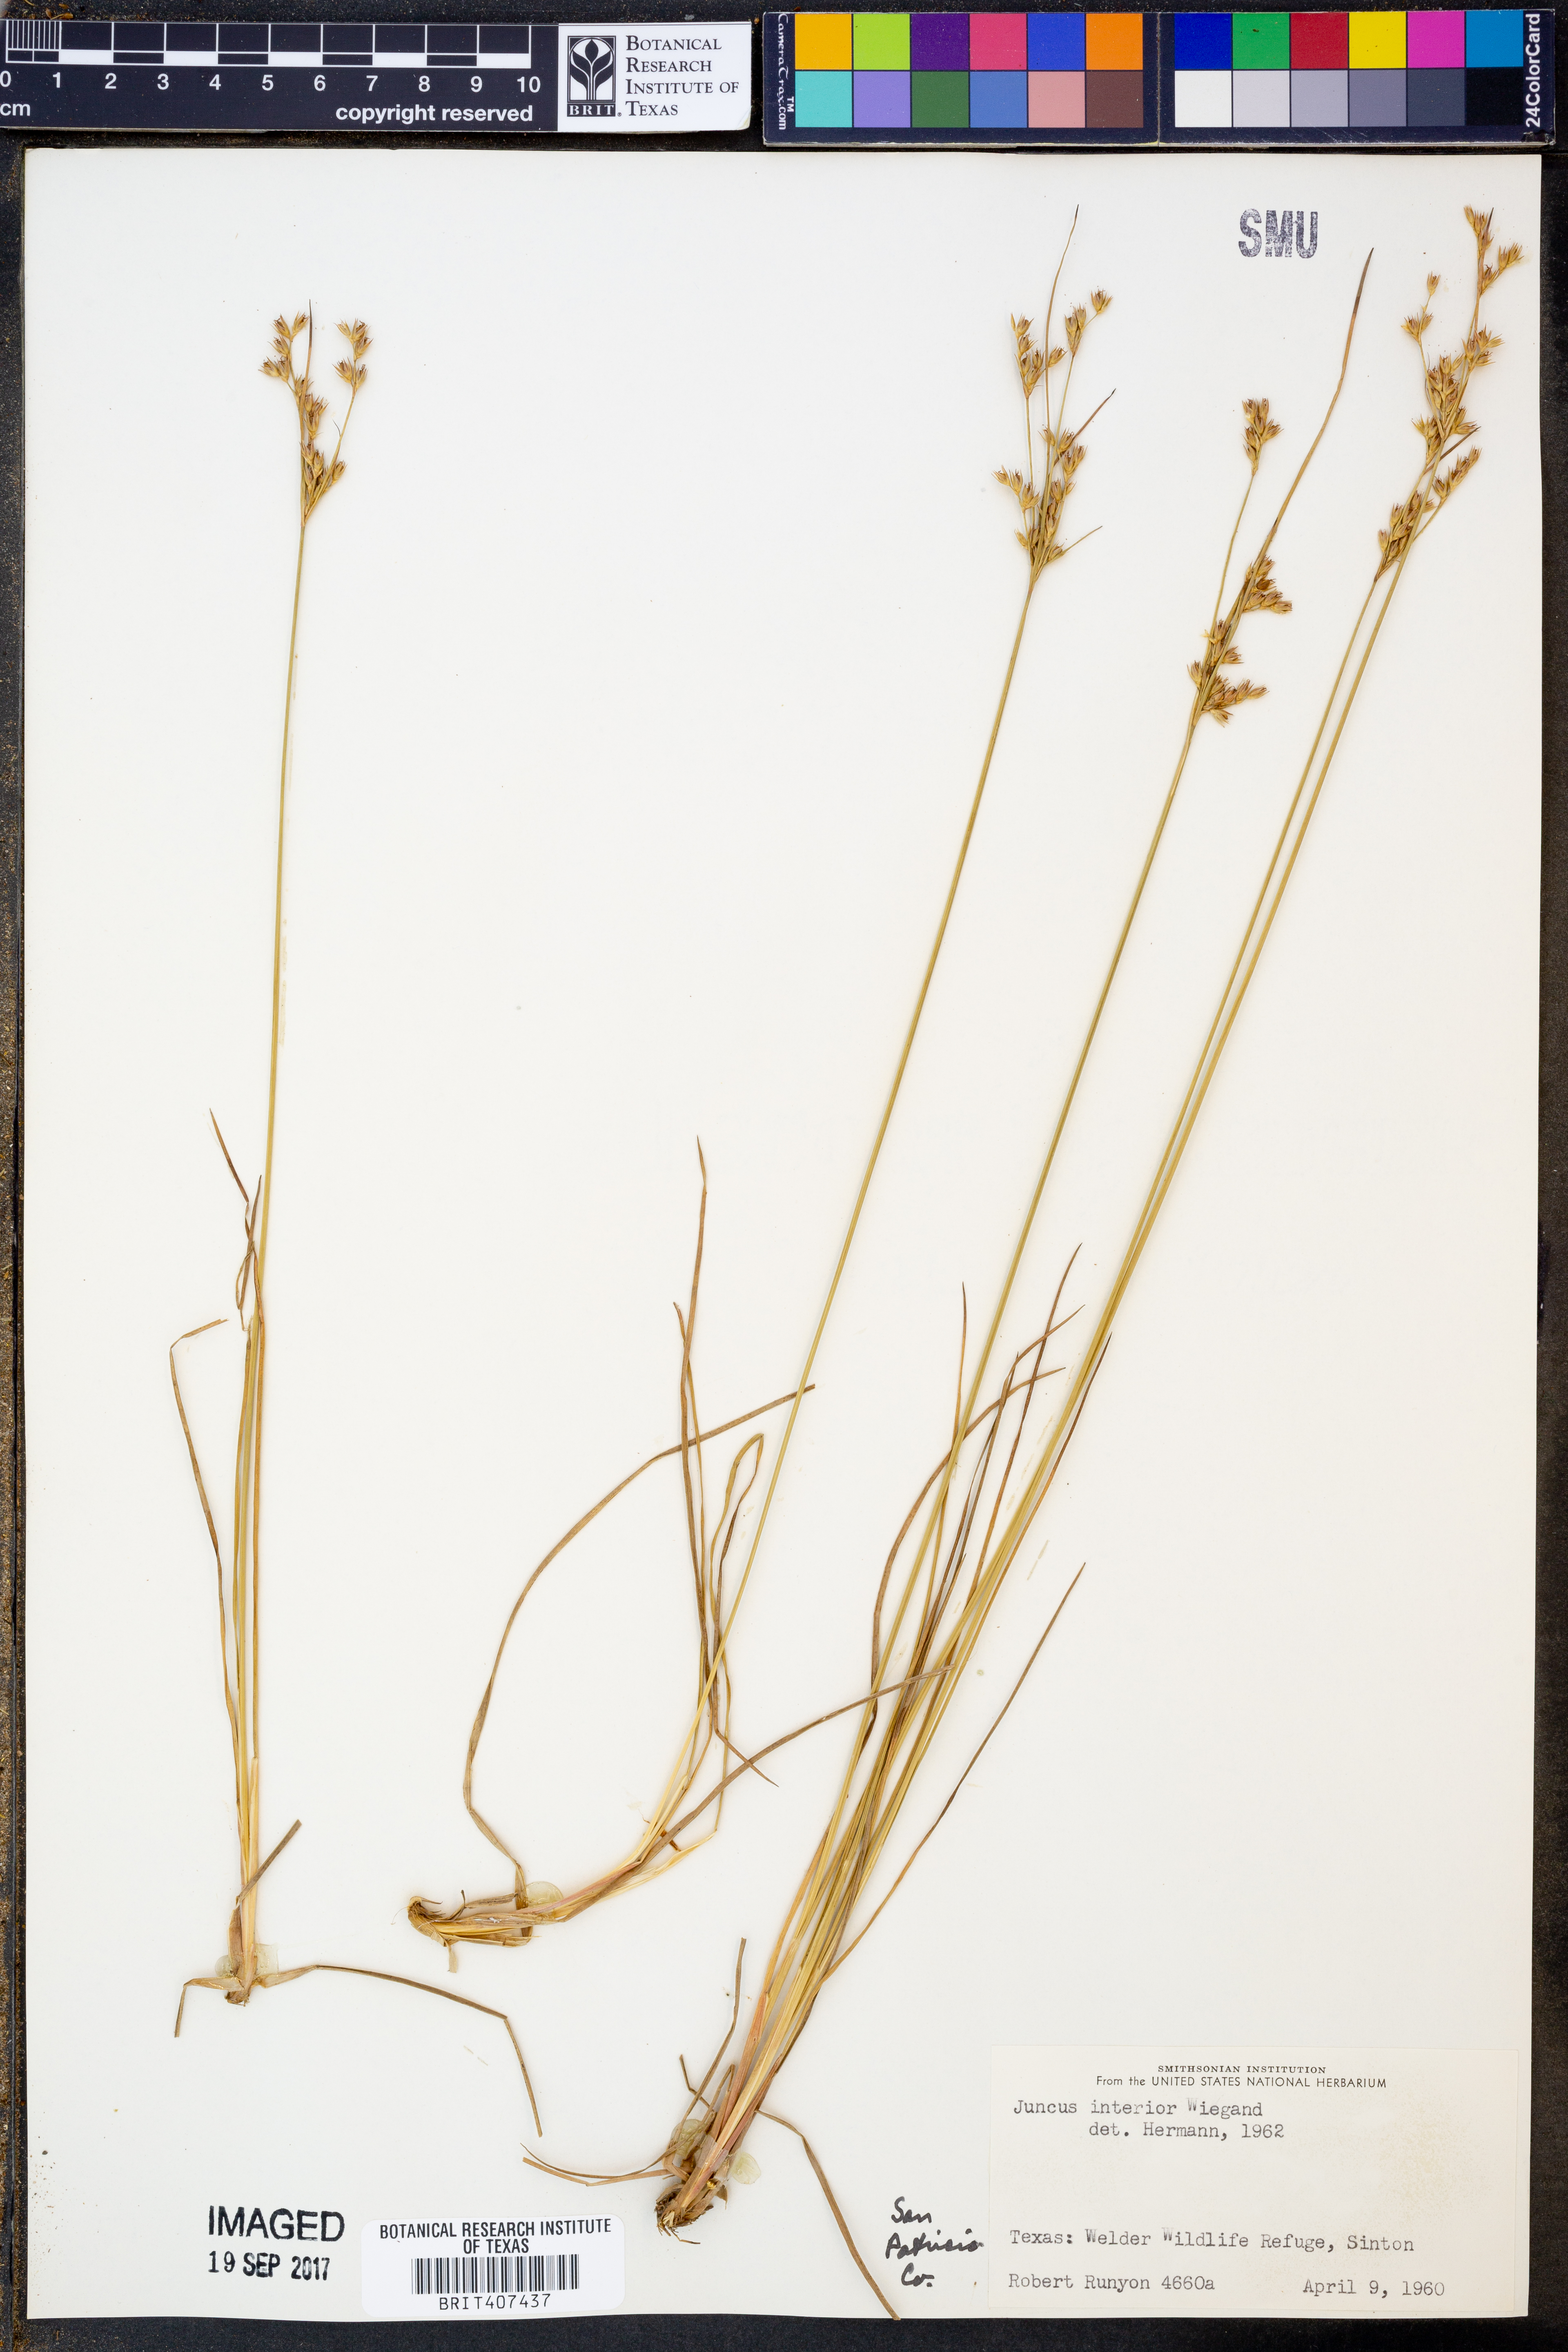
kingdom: Plantae
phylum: Tracheophyta
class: Liliopsida
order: Poales
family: Juncaceae
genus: Juncus
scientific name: Juncus interior
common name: Interior rush
